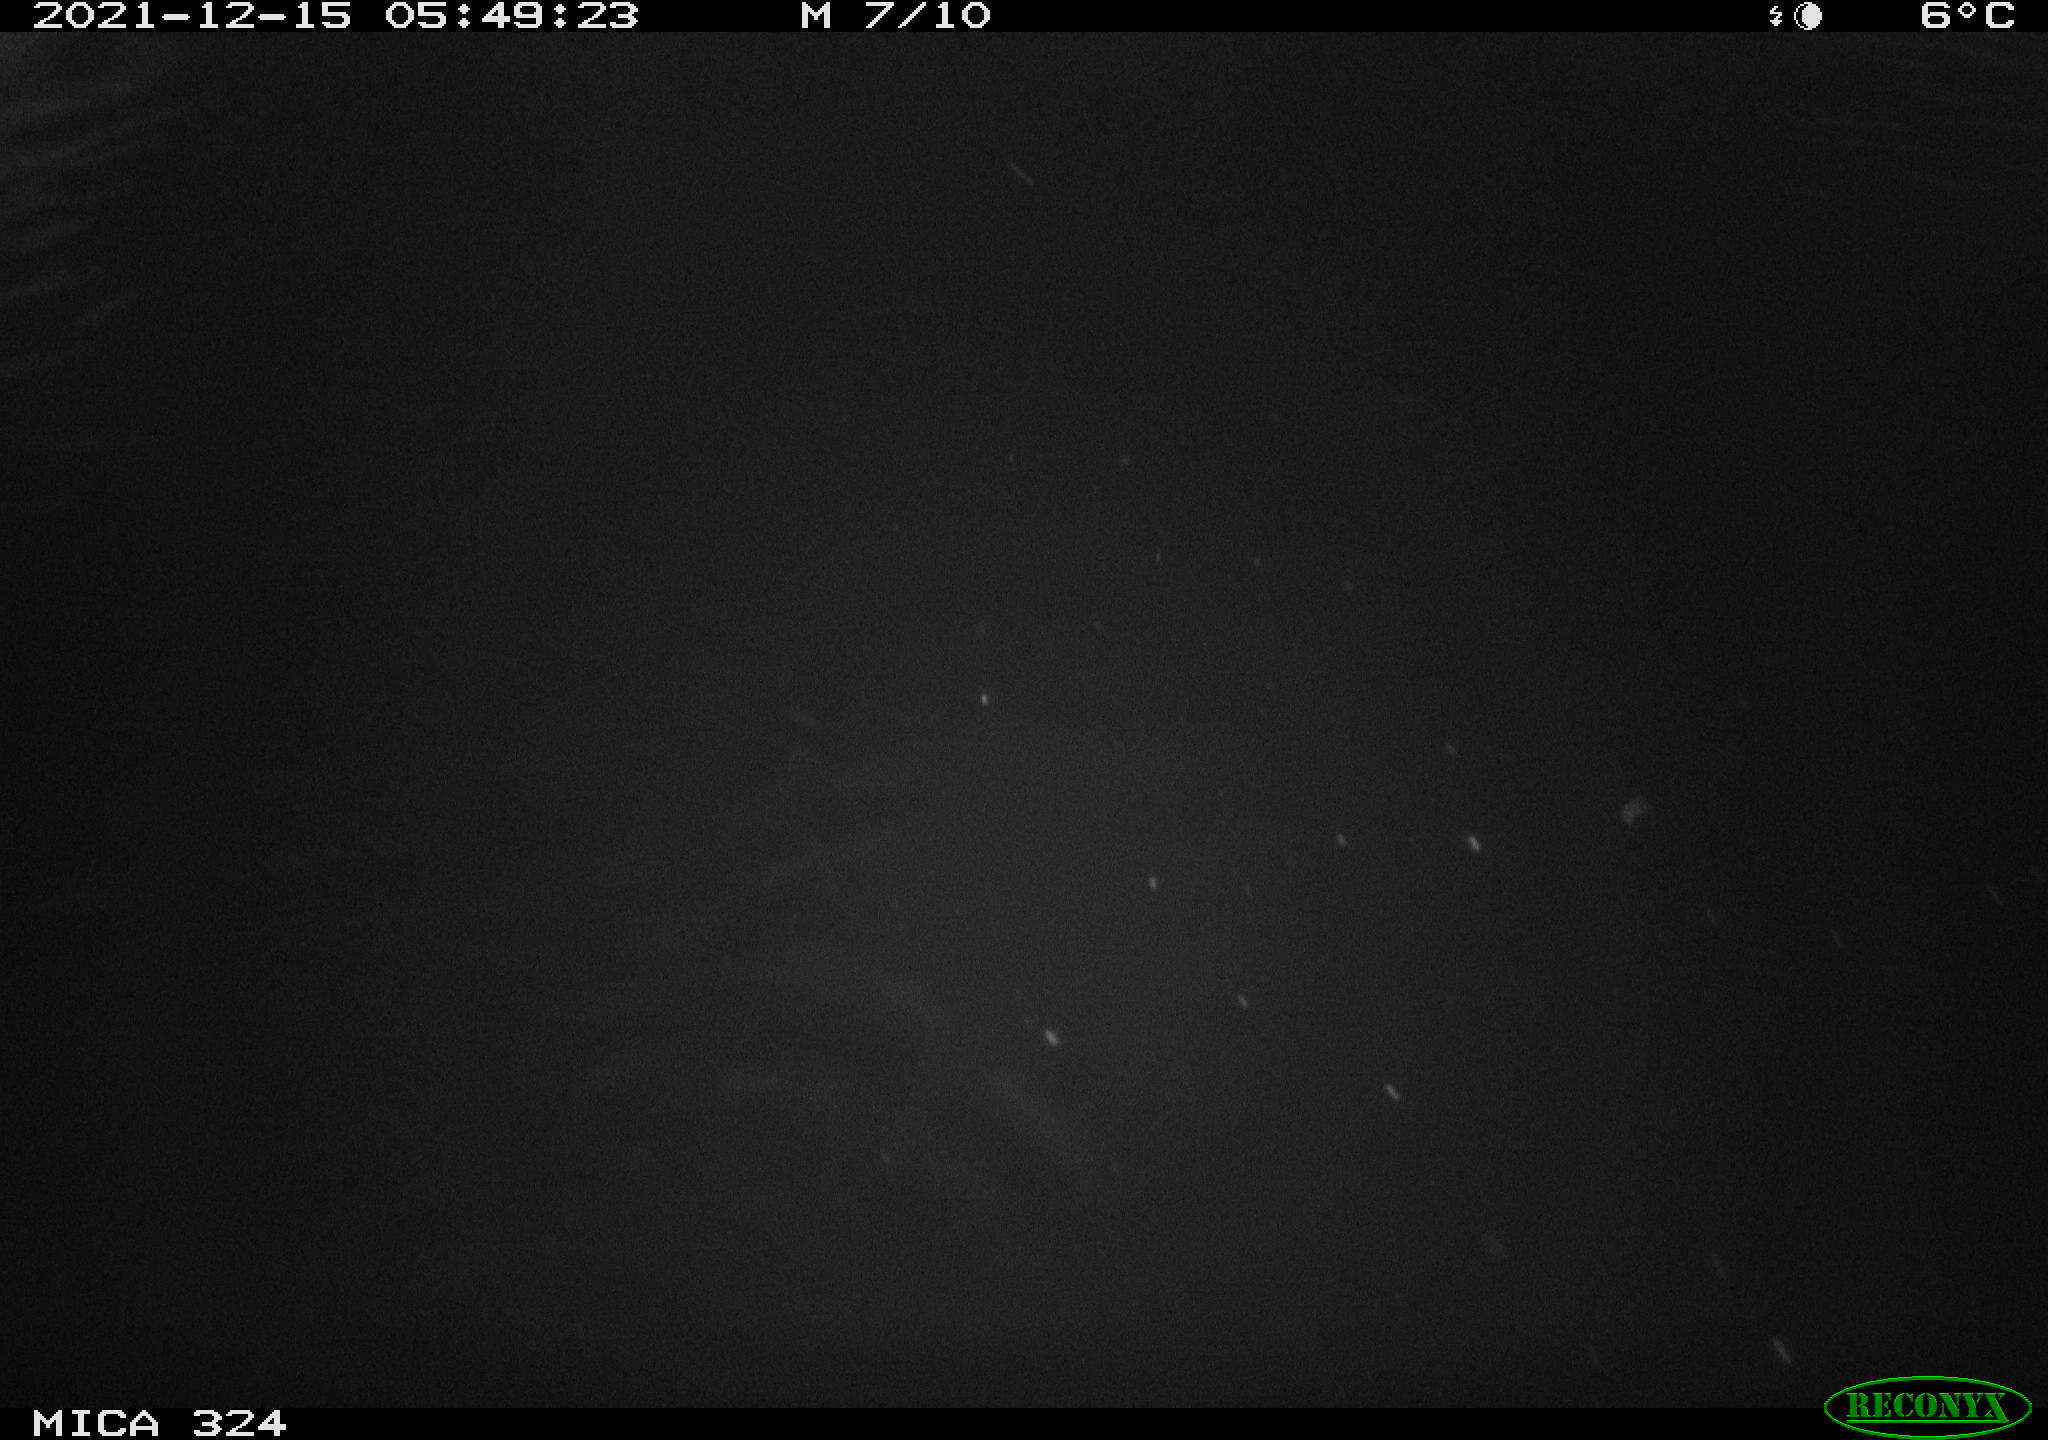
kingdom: Animalia
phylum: Chordata
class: Mammalia
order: Rodentia
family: Cricetidae
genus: Ondatra
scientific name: Ondatra zibethicus
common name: Muskrat
